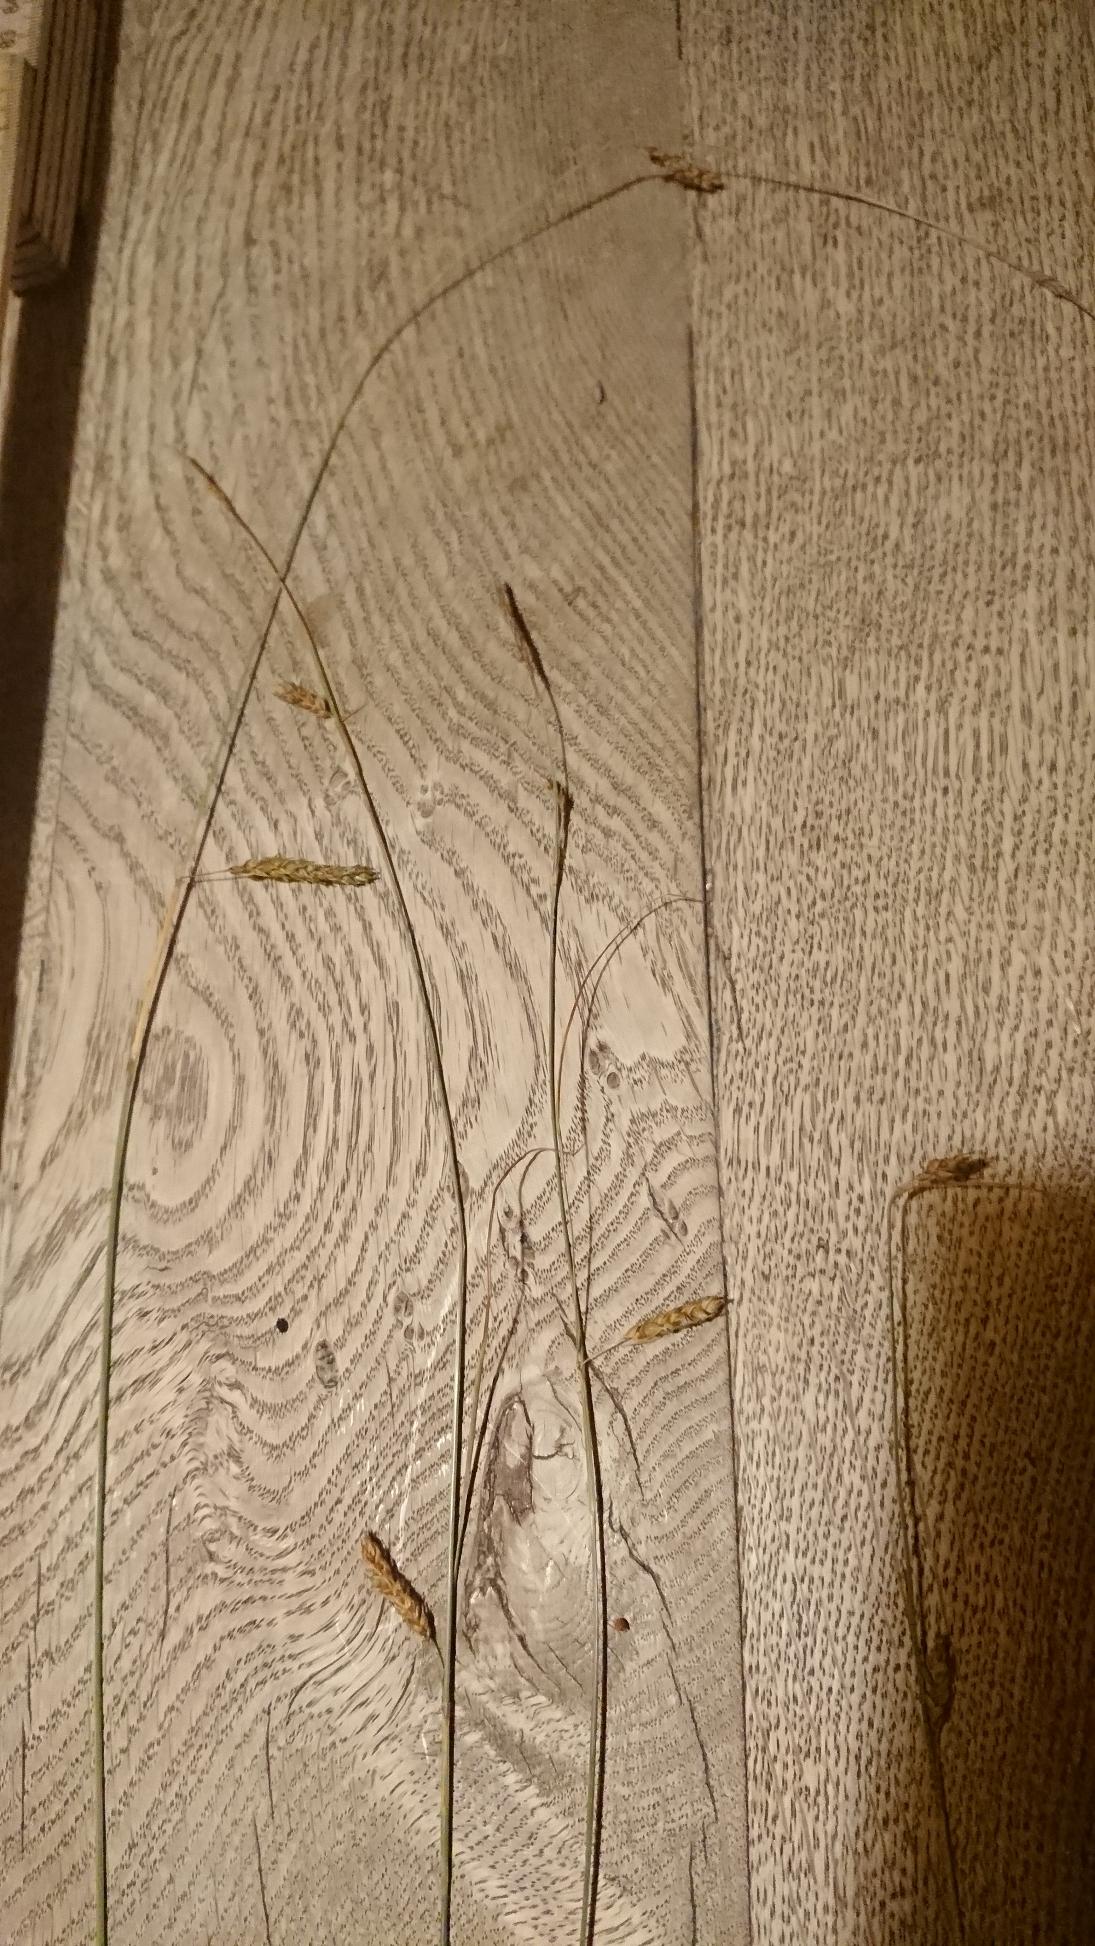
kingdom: Plantae
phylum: Tracheophyta
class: Liliopsida
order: Poales
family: Cyperaceae
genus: Carex
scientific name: Carex distans
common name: Fjernakset star
